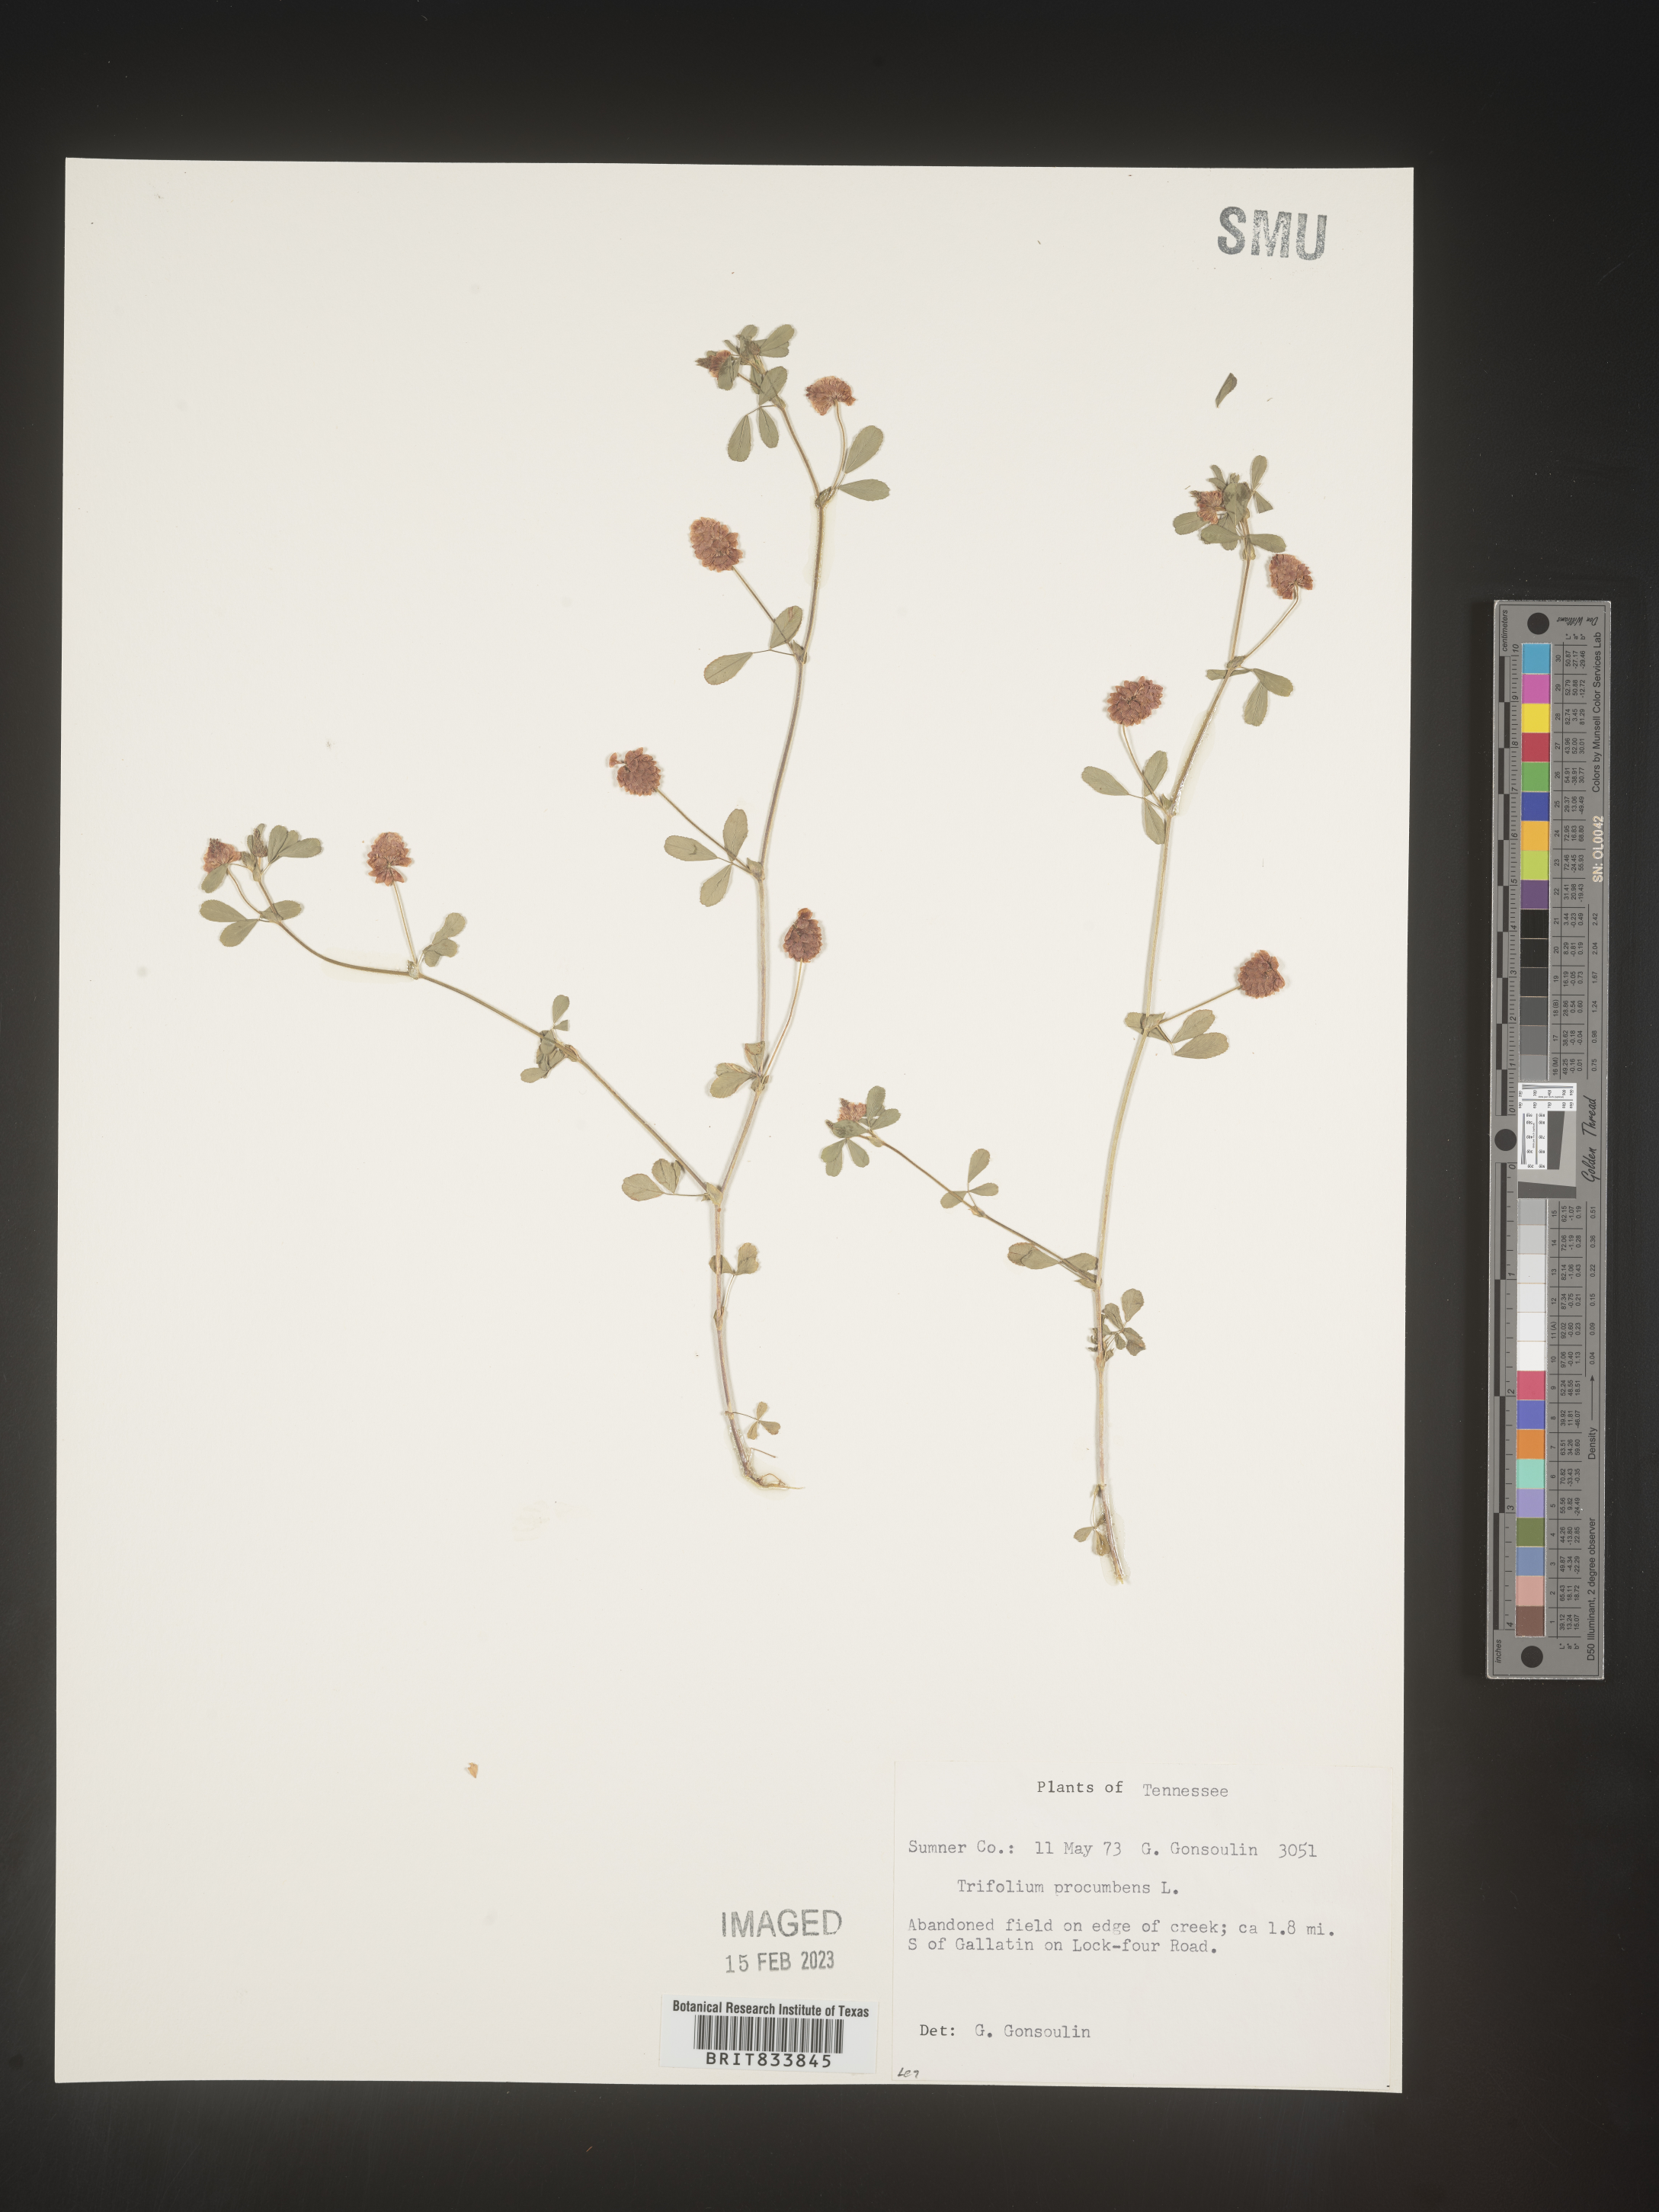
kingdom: Plantae
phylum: Tracheophyta
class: Magnoliopsida
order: Fabales
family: Fabaceae
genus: Trifolium
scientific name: Trifolium campestre
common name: Field clover
